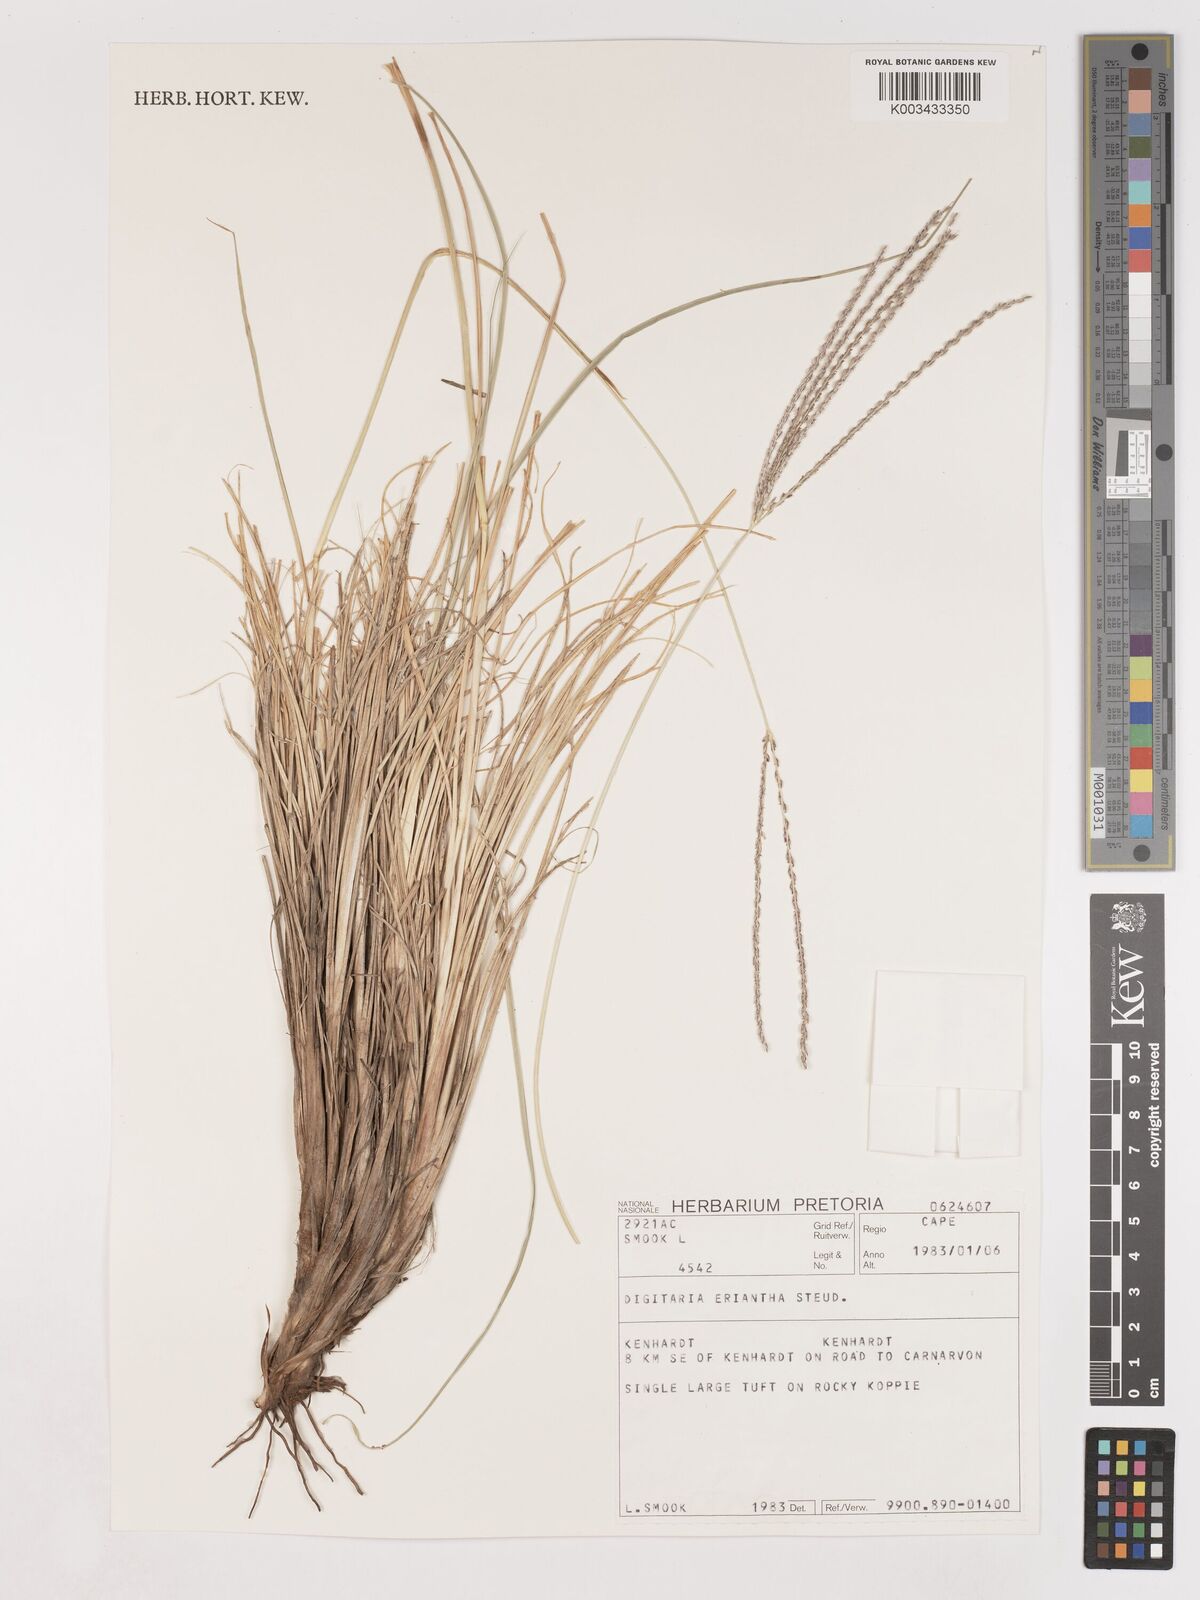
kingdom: Plantae
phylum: Tracheophyta
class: Liliopsida
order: Poales
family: Poaceae
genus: Digitaria
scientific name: Digitaria eriantha
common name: Digitgrass
